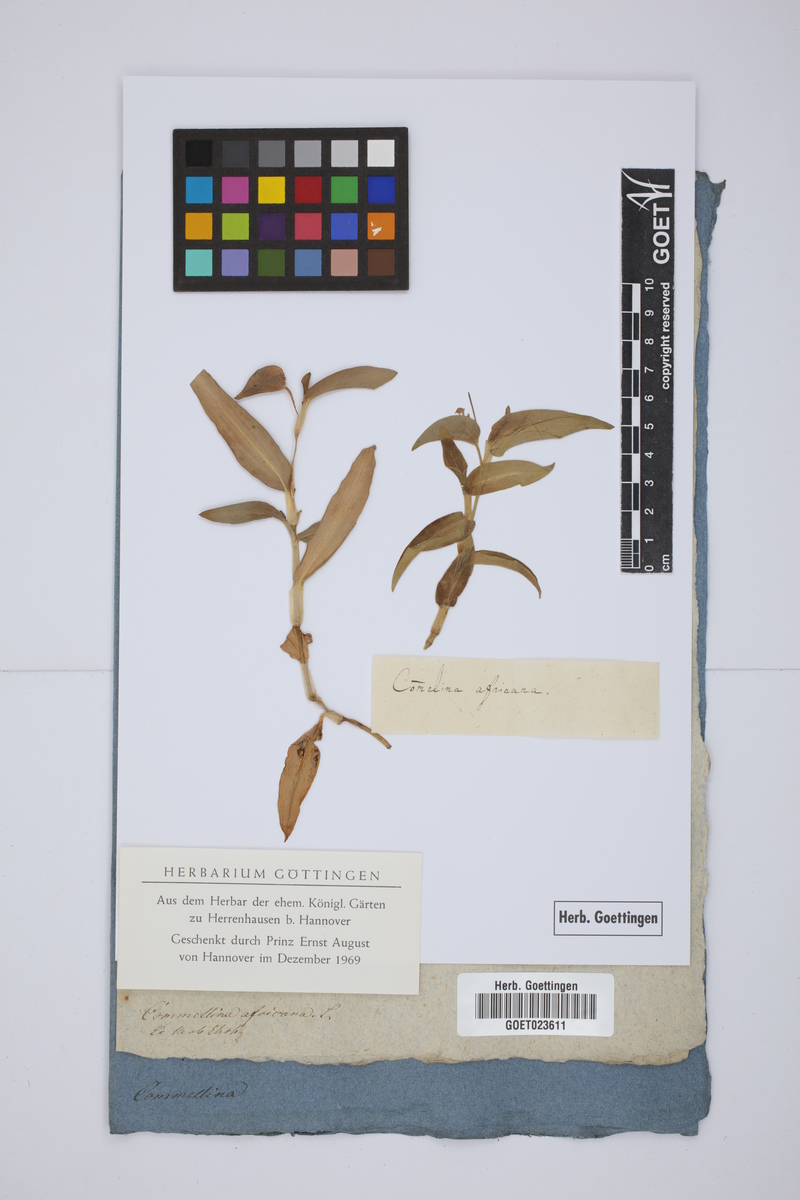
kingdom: Plantae
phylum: Tracheophyta
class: Liliopsida
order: Commelinales
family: Commelinaceae
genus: Commelina
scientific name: Commelina africana
